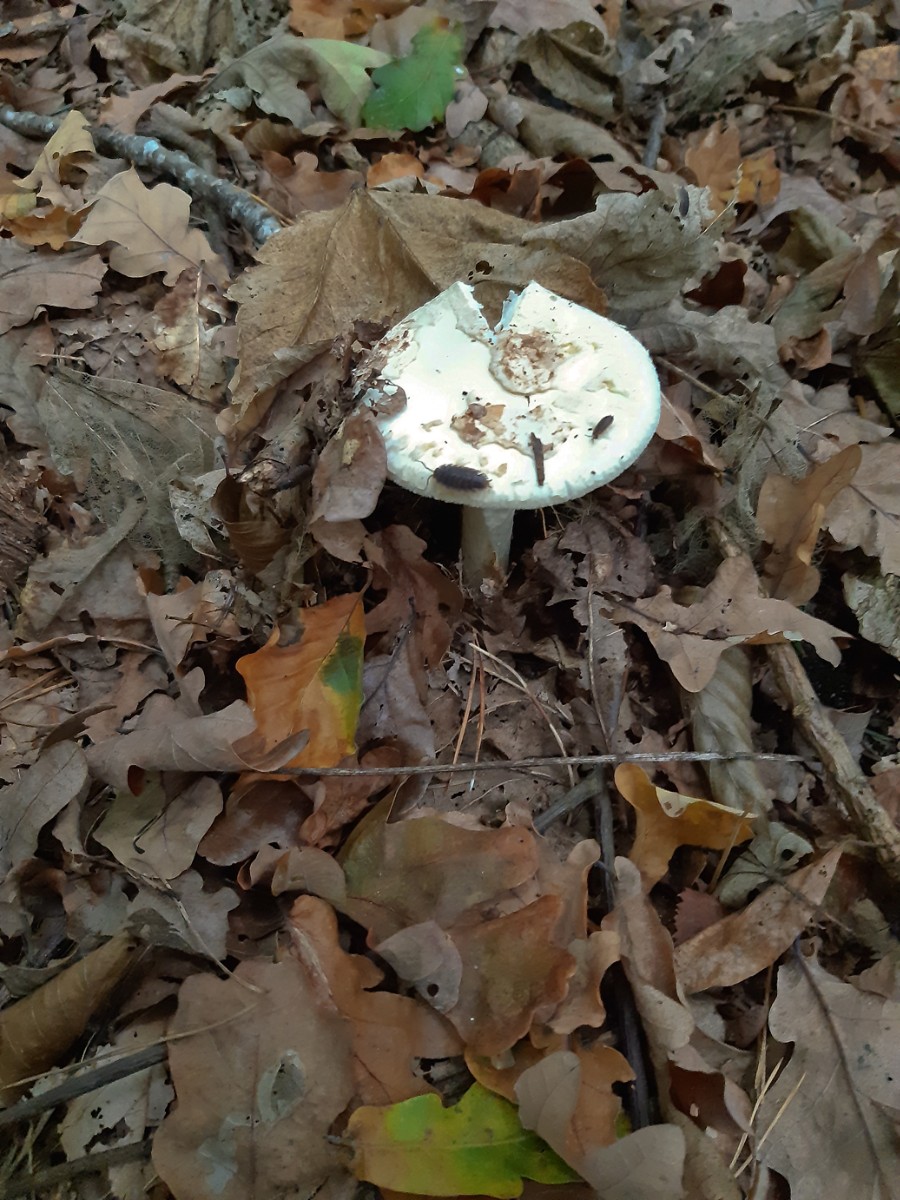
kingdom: Fungi
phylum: Basidiomycota
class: Agaricomycetes
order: Agaricales
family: Amanitaceae
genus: Amanita
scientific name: Amanita citrina
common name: kugleknoldet fluesvamp
